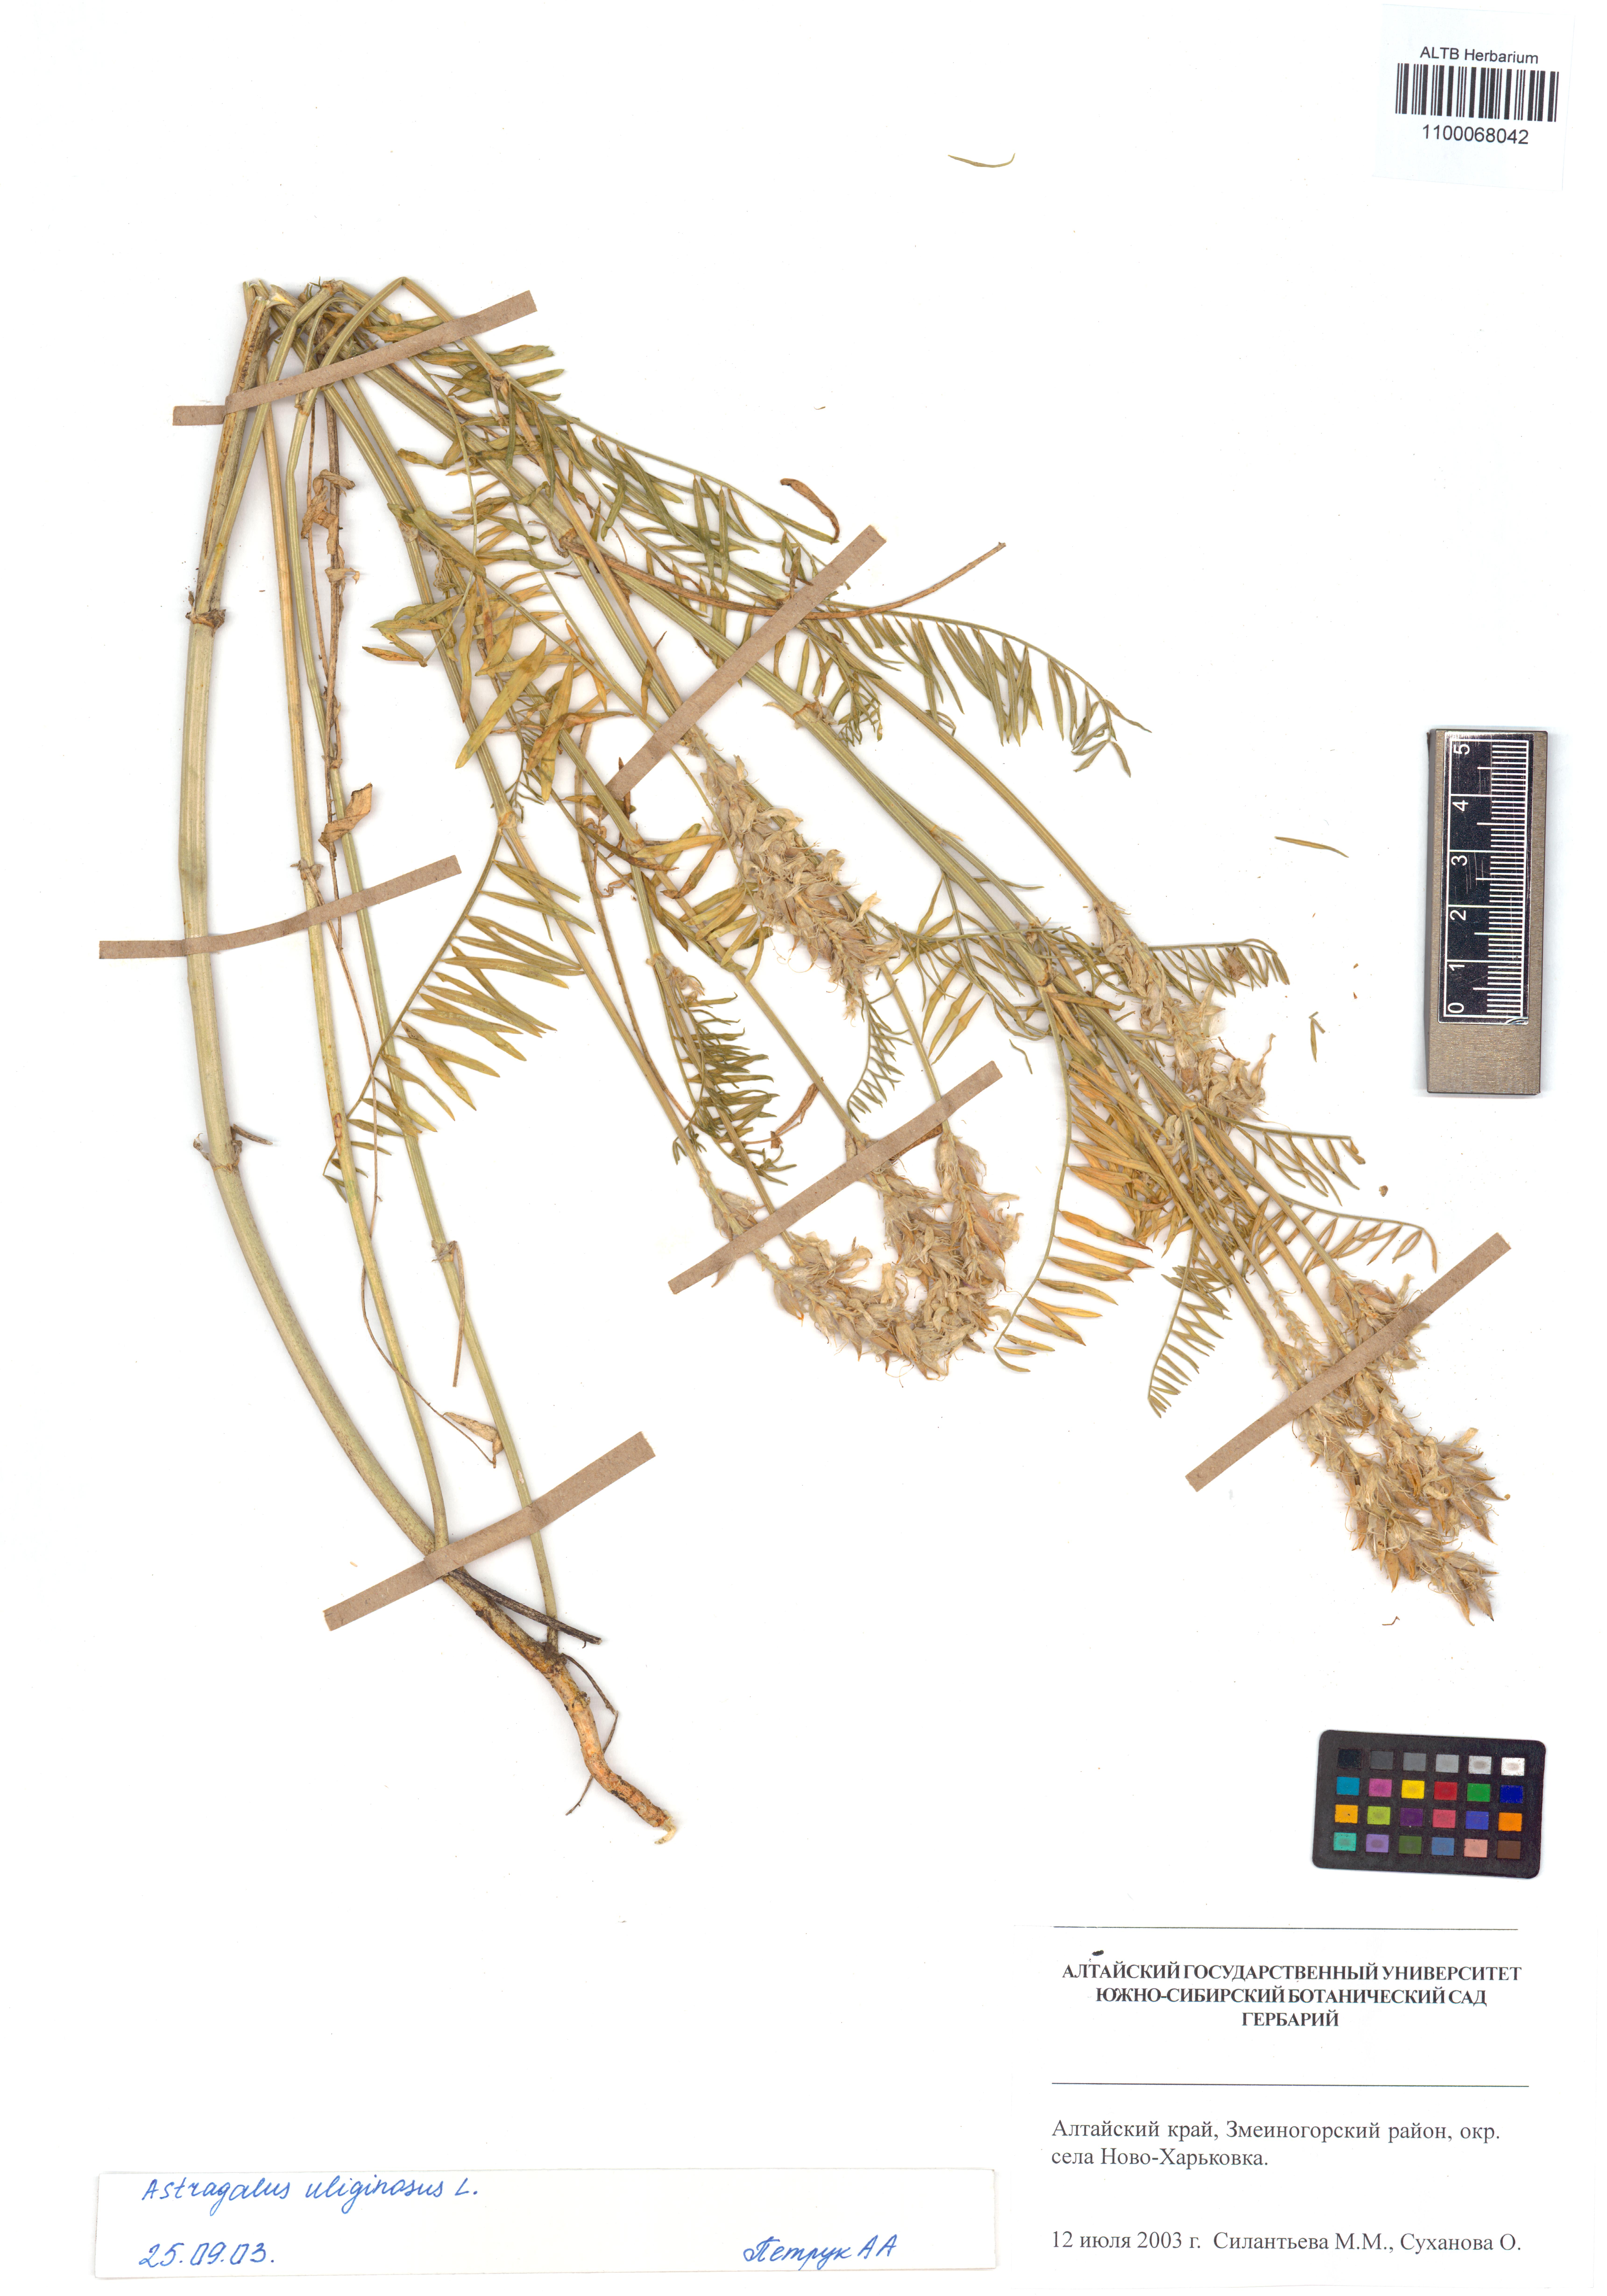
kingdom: Plantae
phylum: Tracheophyta
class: Magnoliopsida
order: Fabales
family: Fabaceae
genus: Astragalus
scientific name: Astragalus uliginosus
